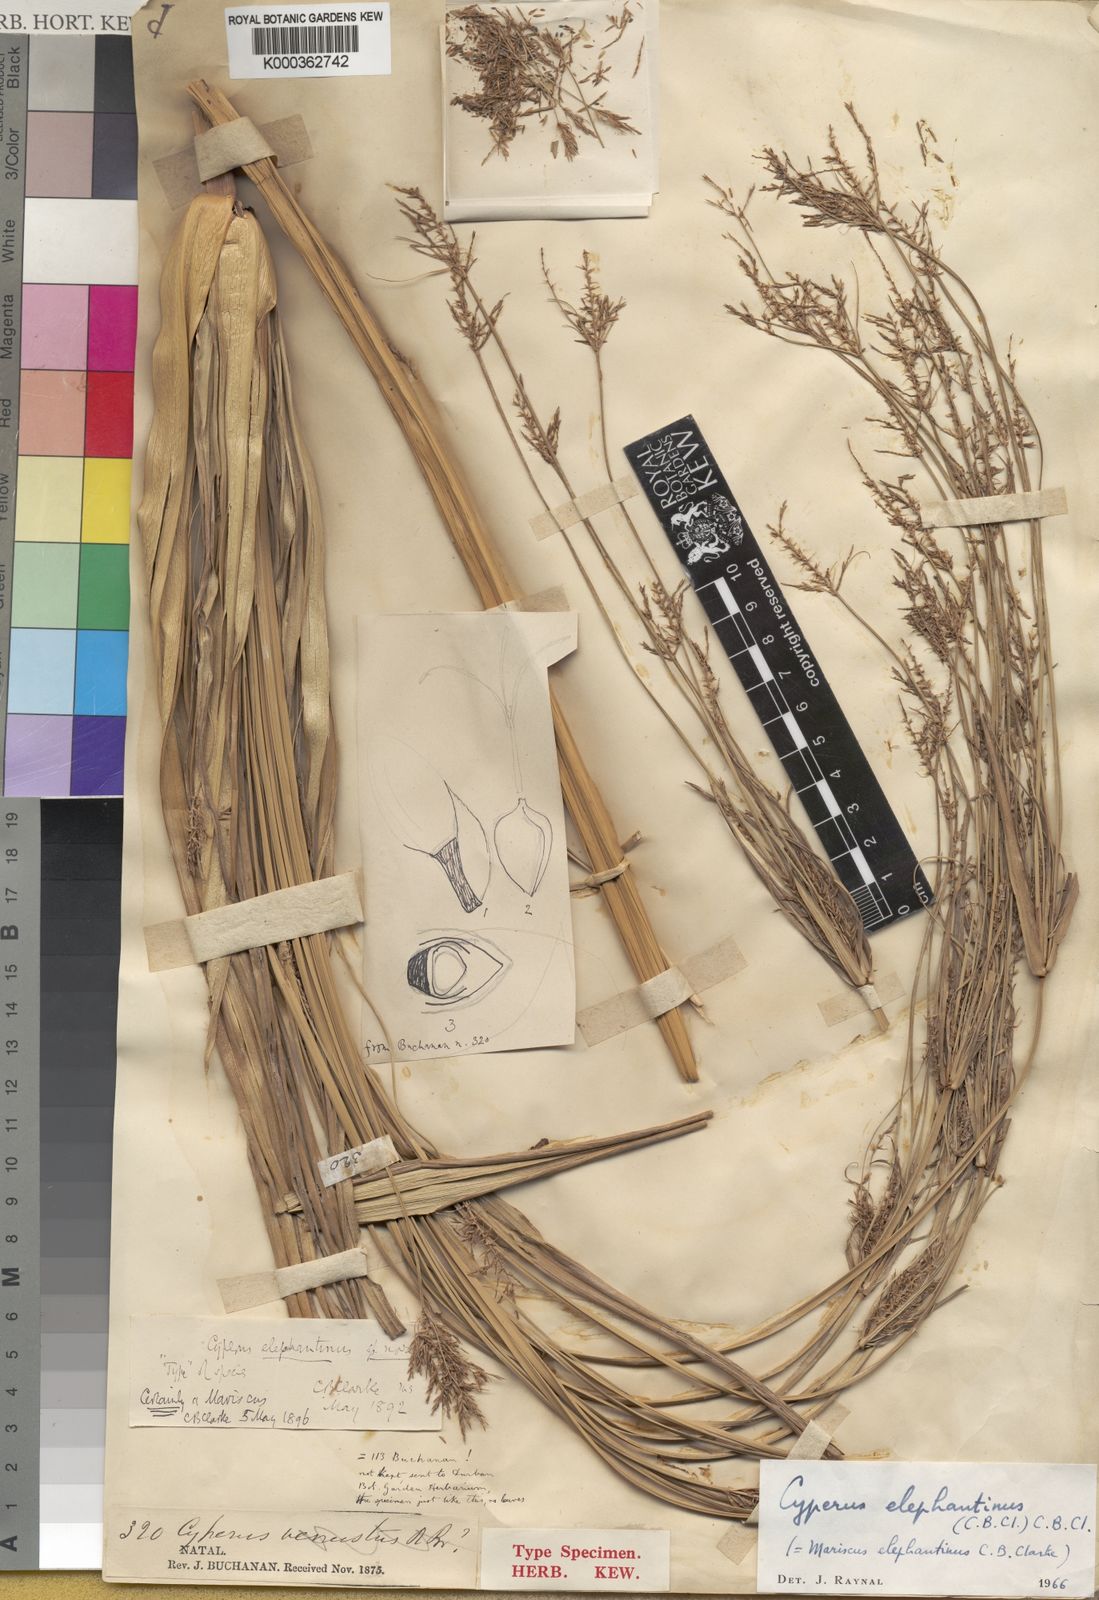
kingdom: Plantae
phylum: Tracheophyta
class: Liliopsida
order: Poales
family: Cyperaceae
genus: Cyperus
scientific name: Cyperus elephantinus
